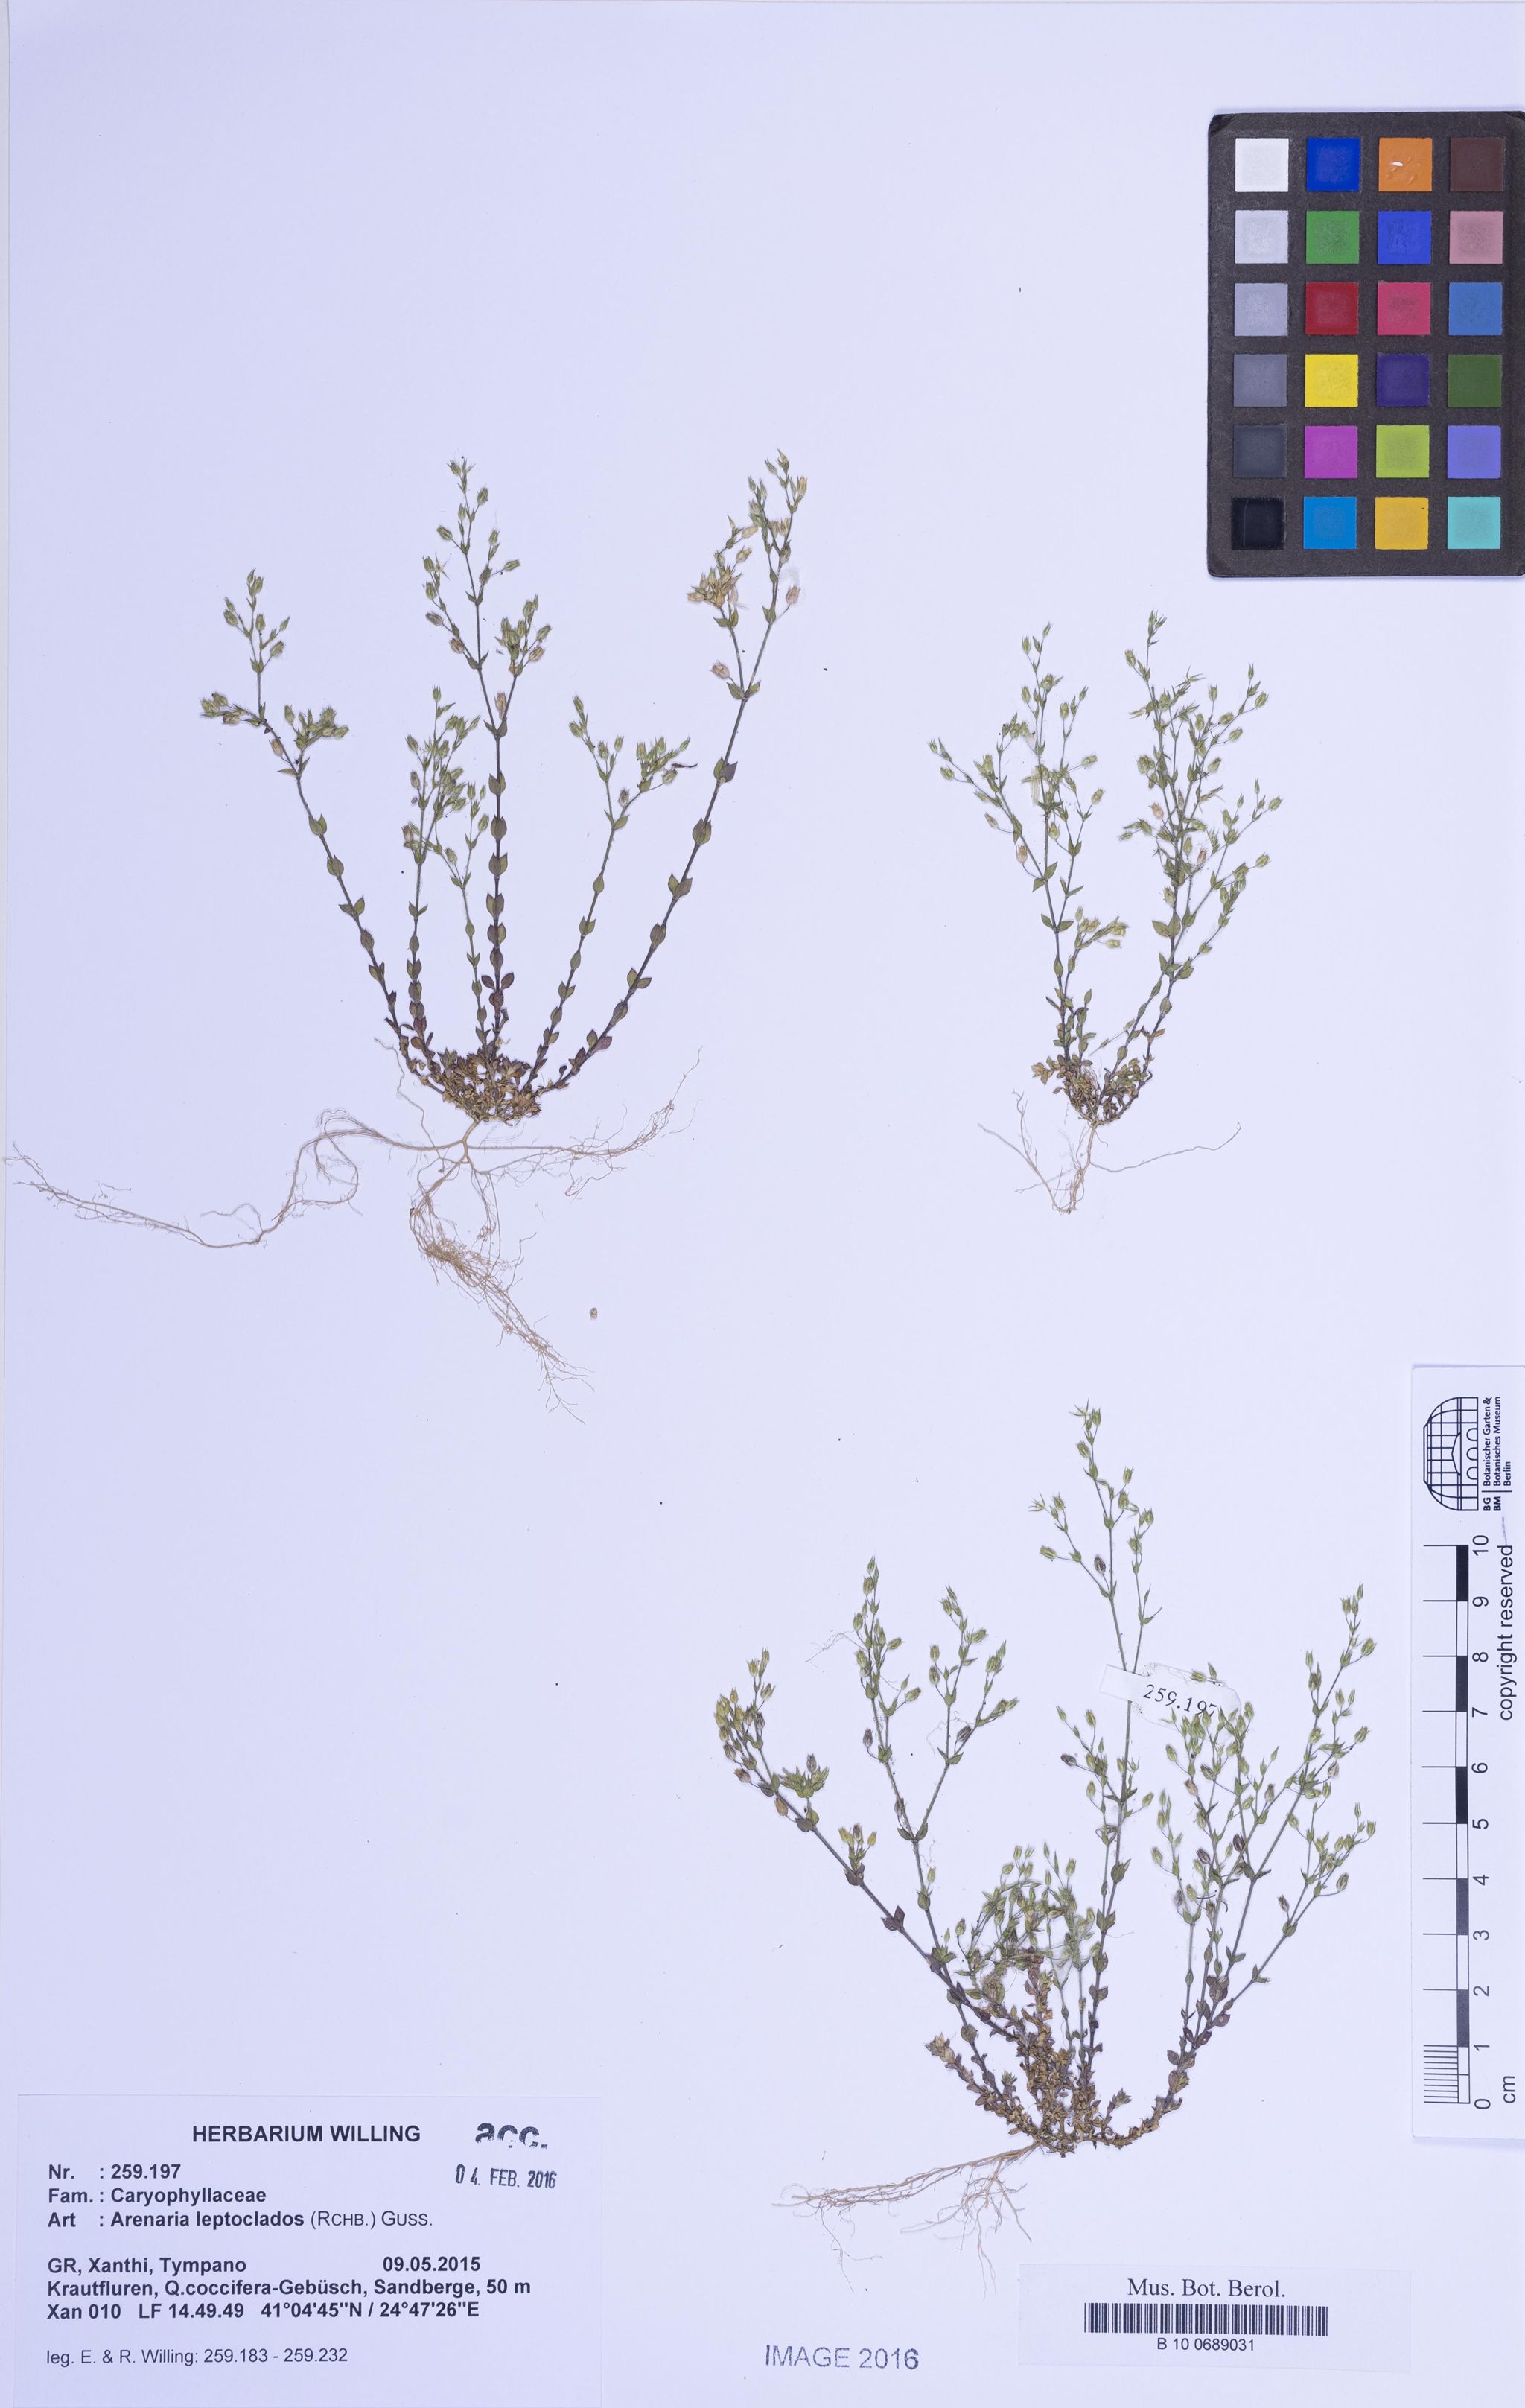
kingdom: Plantae
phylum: Tracheophyta
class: Magnoliopsida
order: Caryophyllales
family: Caryophyllaceae
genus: Arenaria
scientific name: Arenaria leptoclados
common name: Thyme-leaved sandwort
